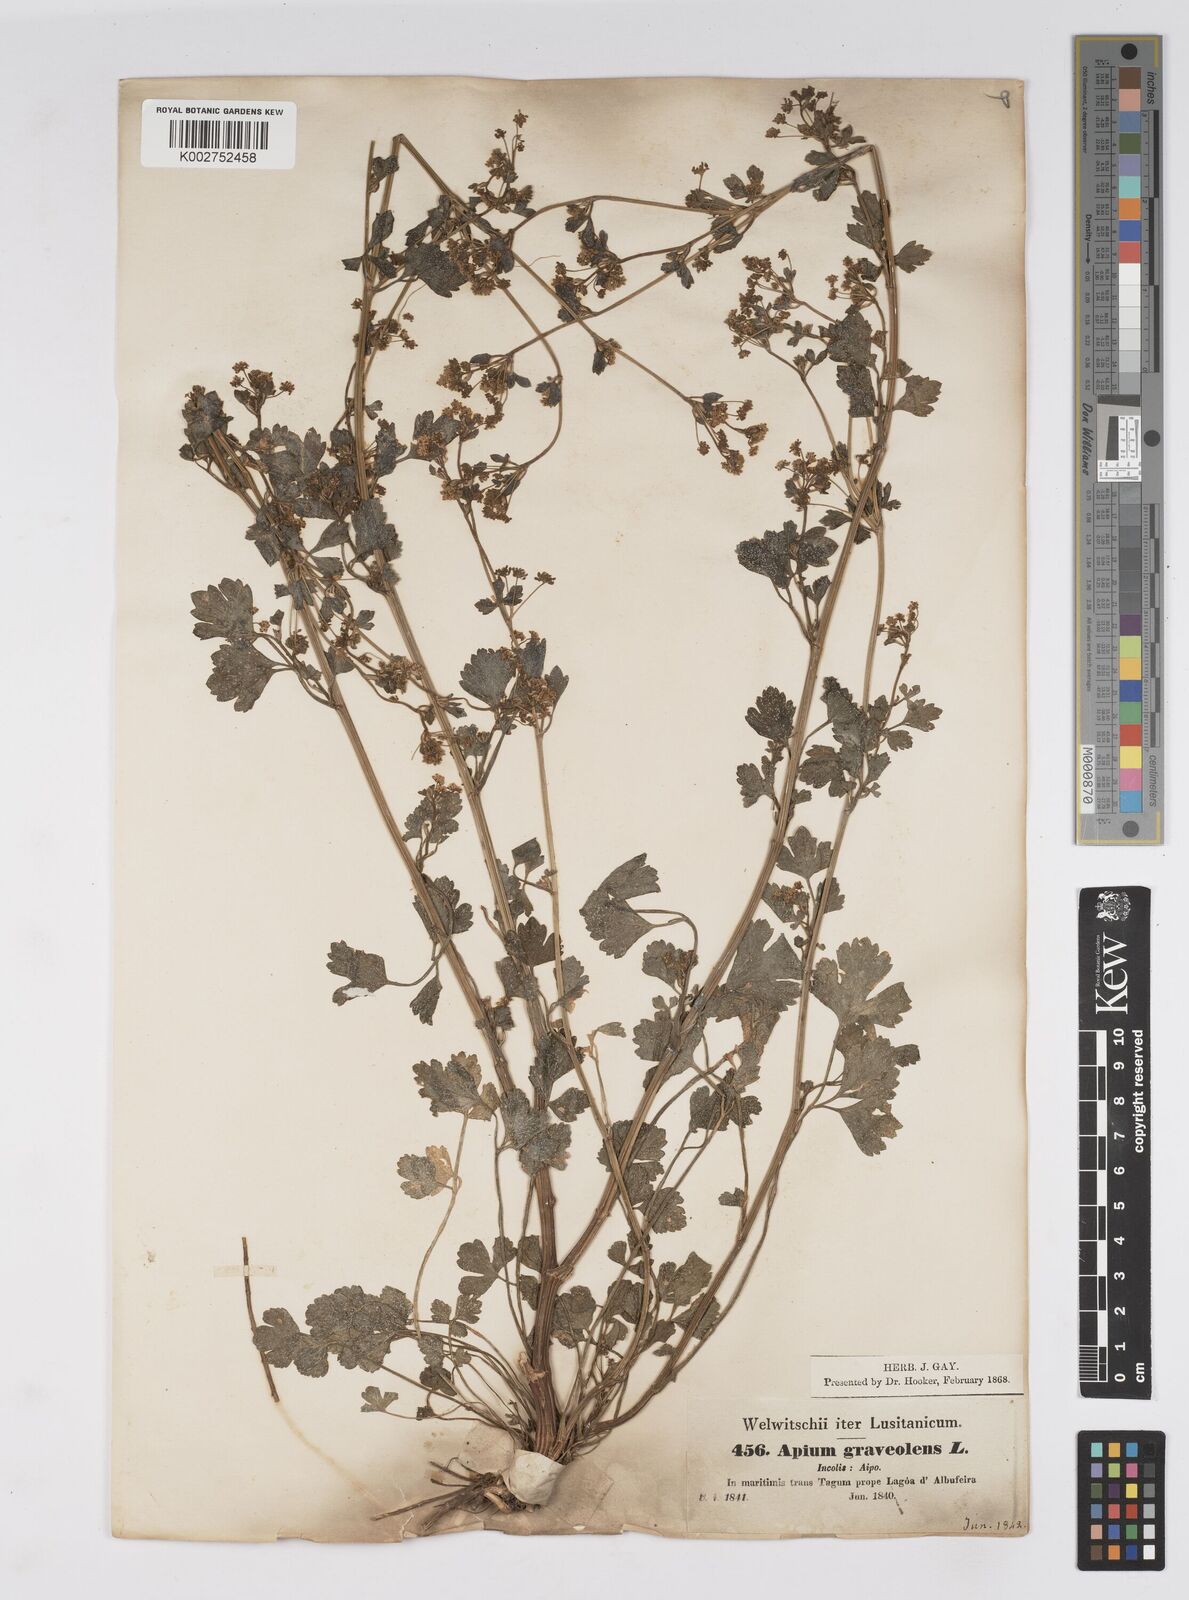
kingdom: Plantae
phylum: Tracheophyta
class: Magnoliopsida
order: Apiales
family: Apiaceae
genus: Apium
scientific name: Apium graveolens
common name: Wild celery
